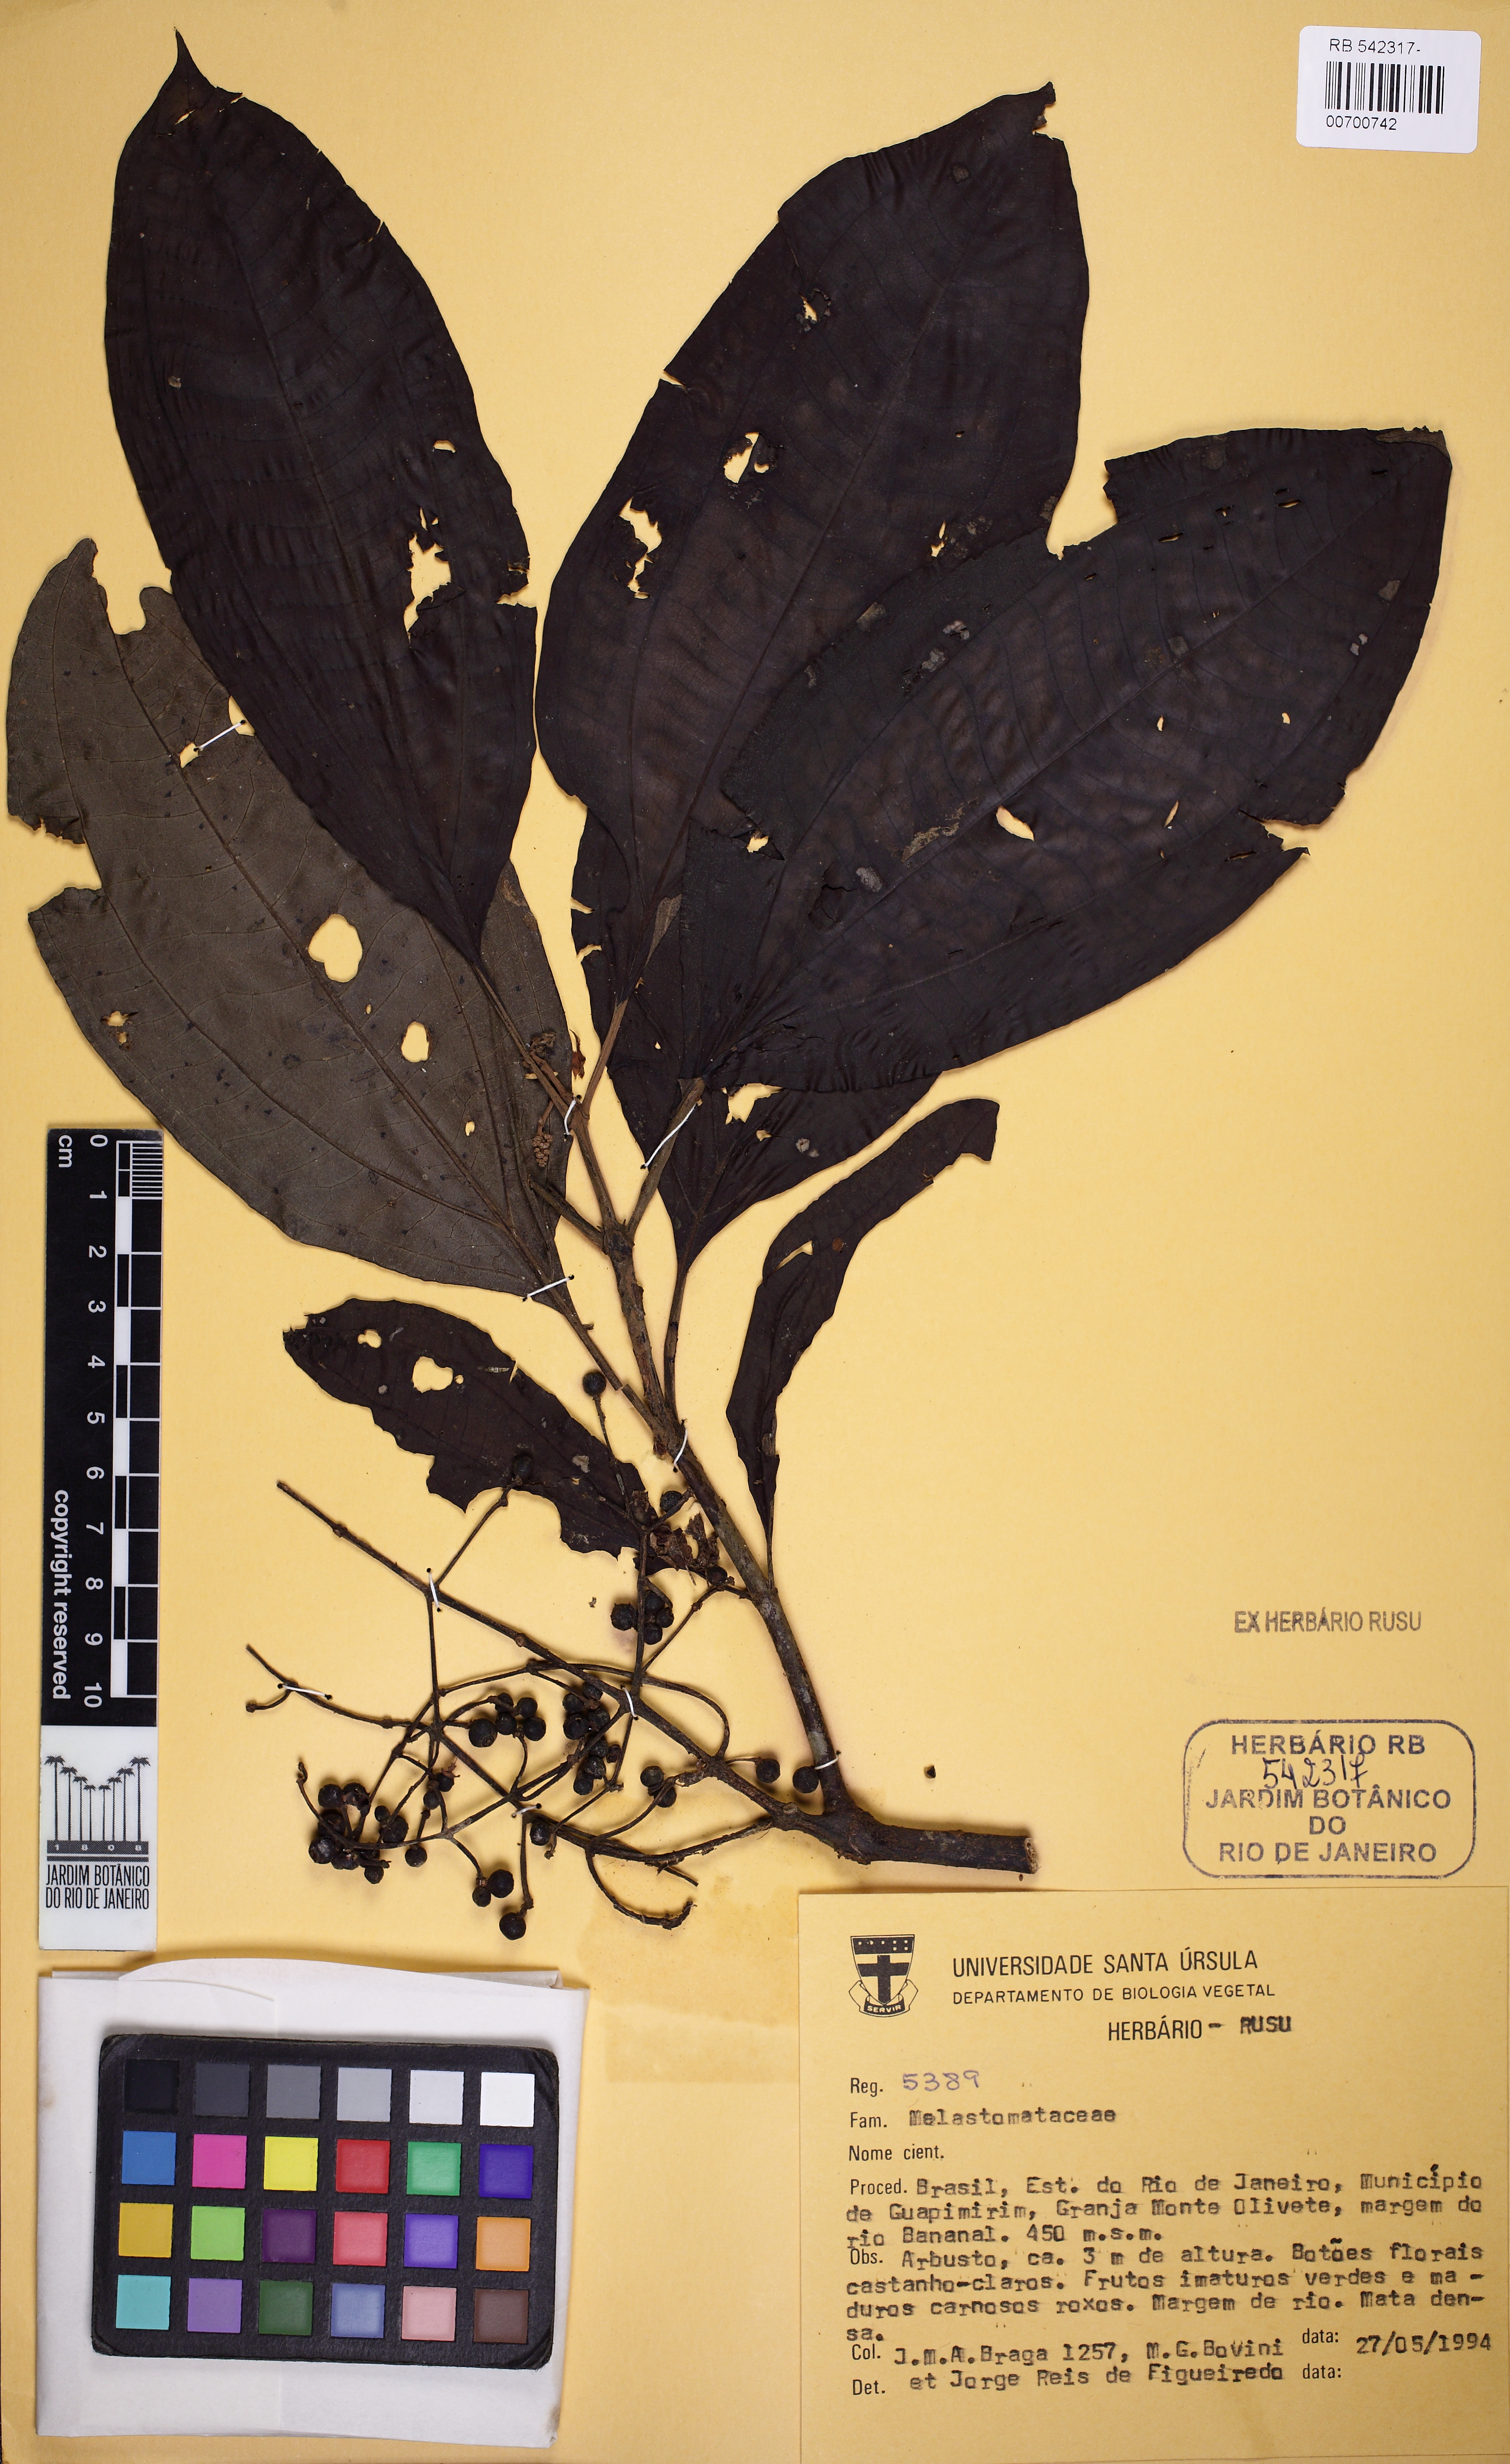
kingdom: Plantae
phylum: Tracheophyta
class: Magnoliopsida
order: Myrtales
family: Melastomataceae
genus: Miconia
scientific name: Miconia atlantica
